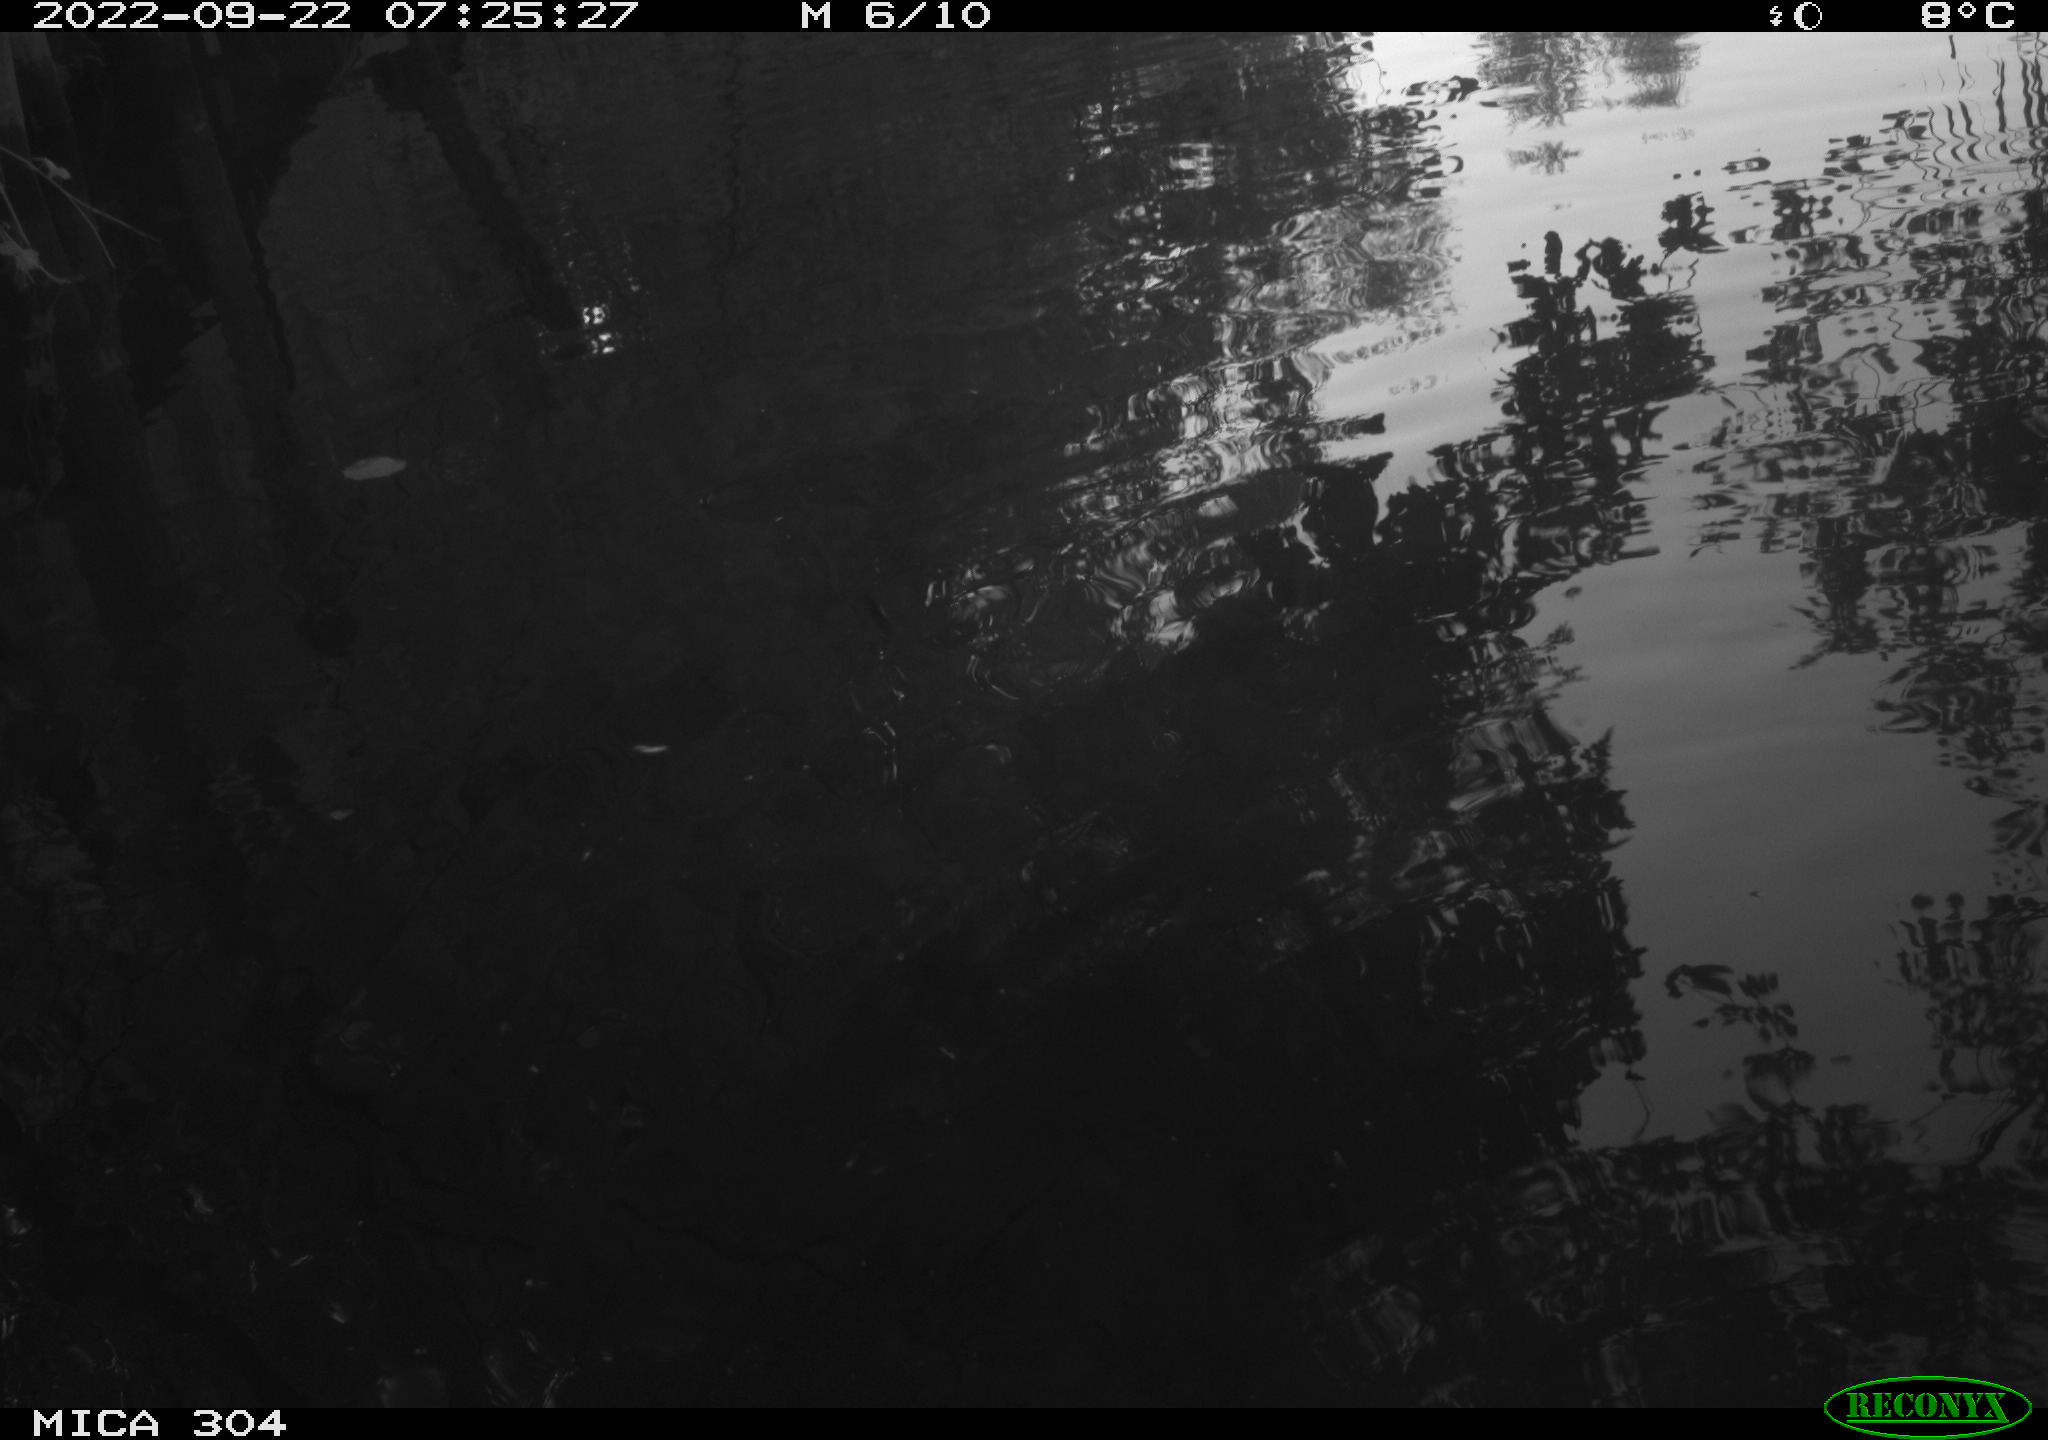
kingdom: Animalia
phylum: Chordata
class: Aves
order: Anseriformes
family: Anatidae
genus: Anas
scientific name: Anas platyrhynchos
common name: Mallard
